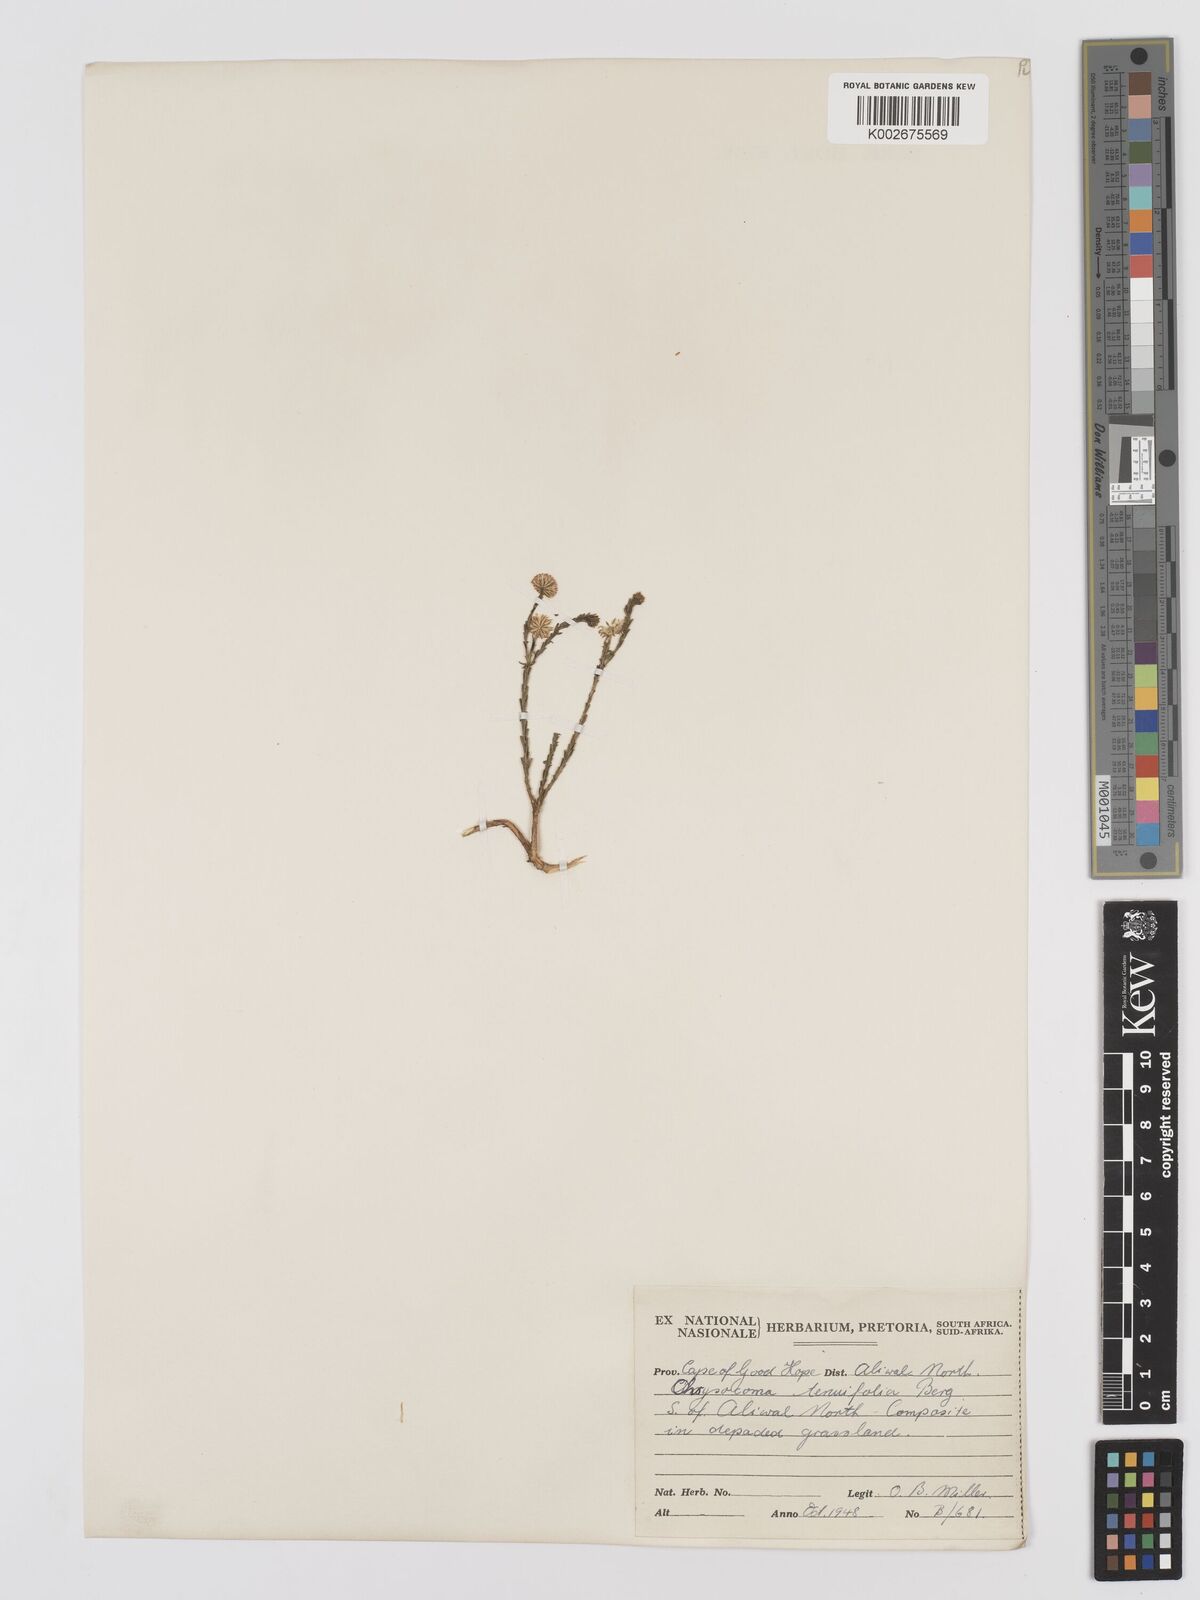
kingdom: Plantae
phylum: Tracheophyta
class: Magnoliopsida
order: Asterales
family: Asteraceae
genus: Chrysocoma
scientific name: Chrysocoma ciliata
